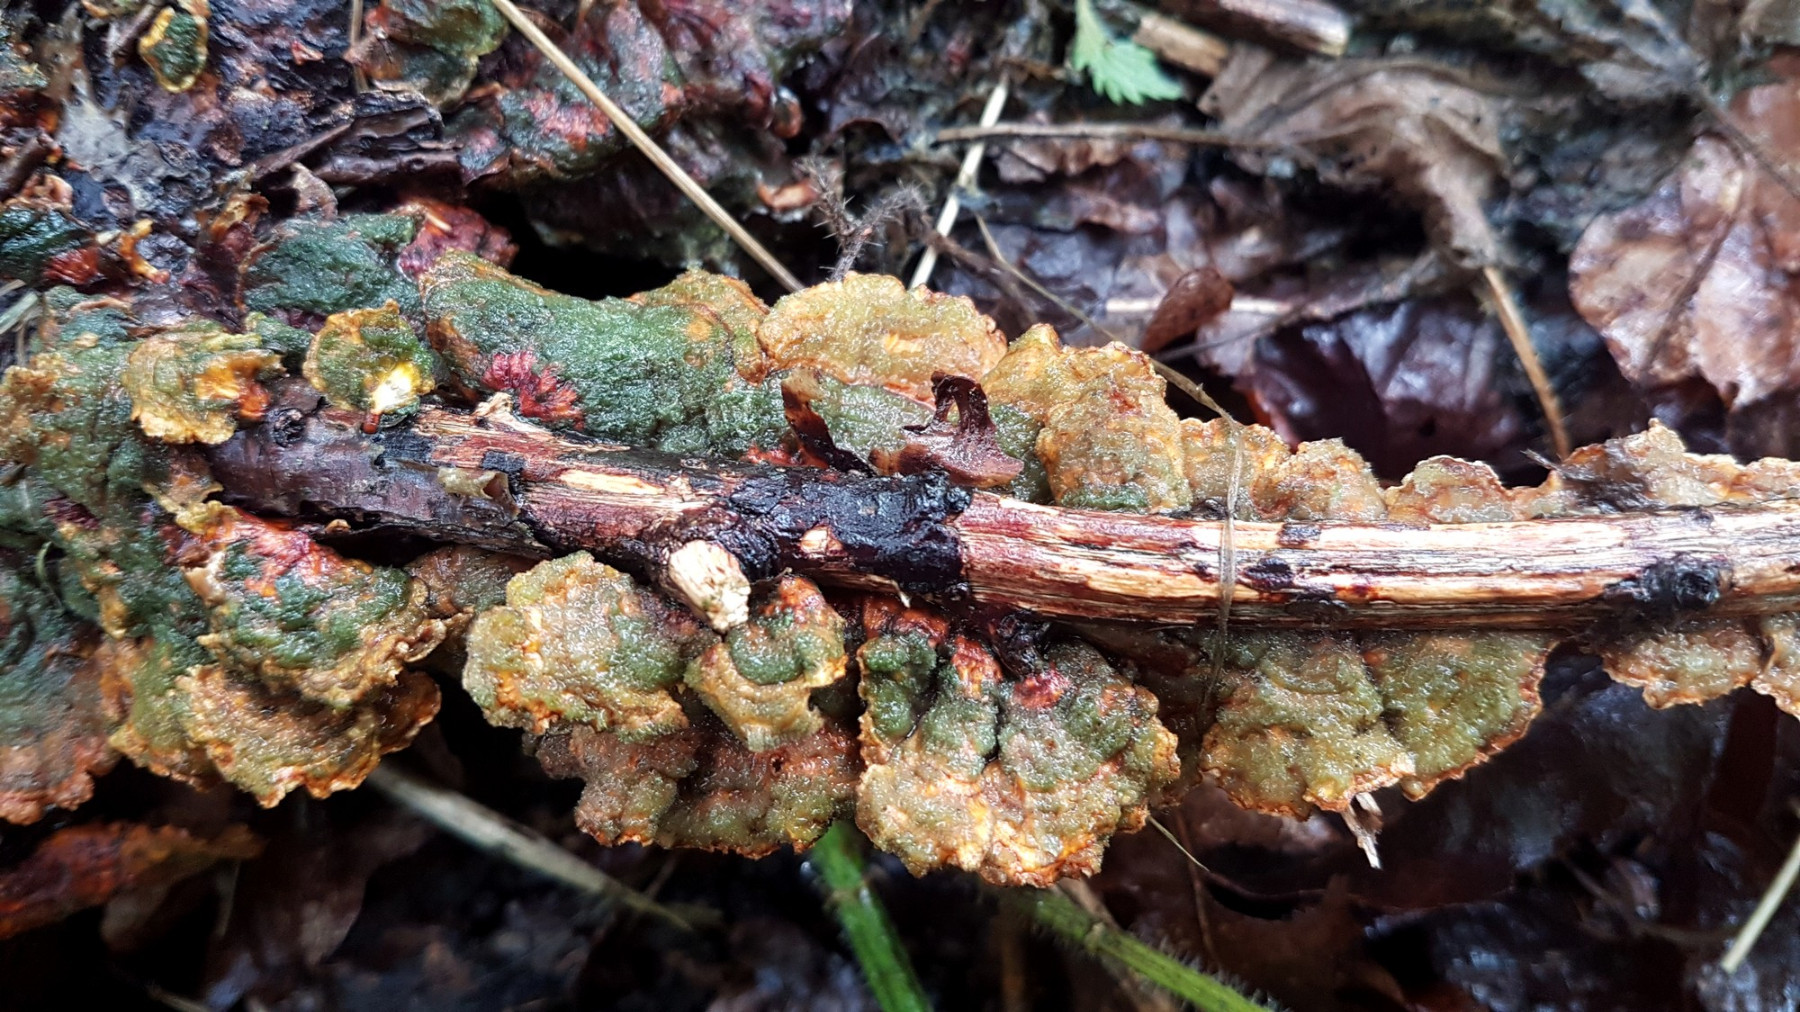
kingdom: Fungi
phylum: Basidiomycota
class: Agaricomycetes
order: Russulales
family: Stereaceae
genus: Stereum
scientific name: Stereum subtomentosum
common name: smuk lædersvamp
